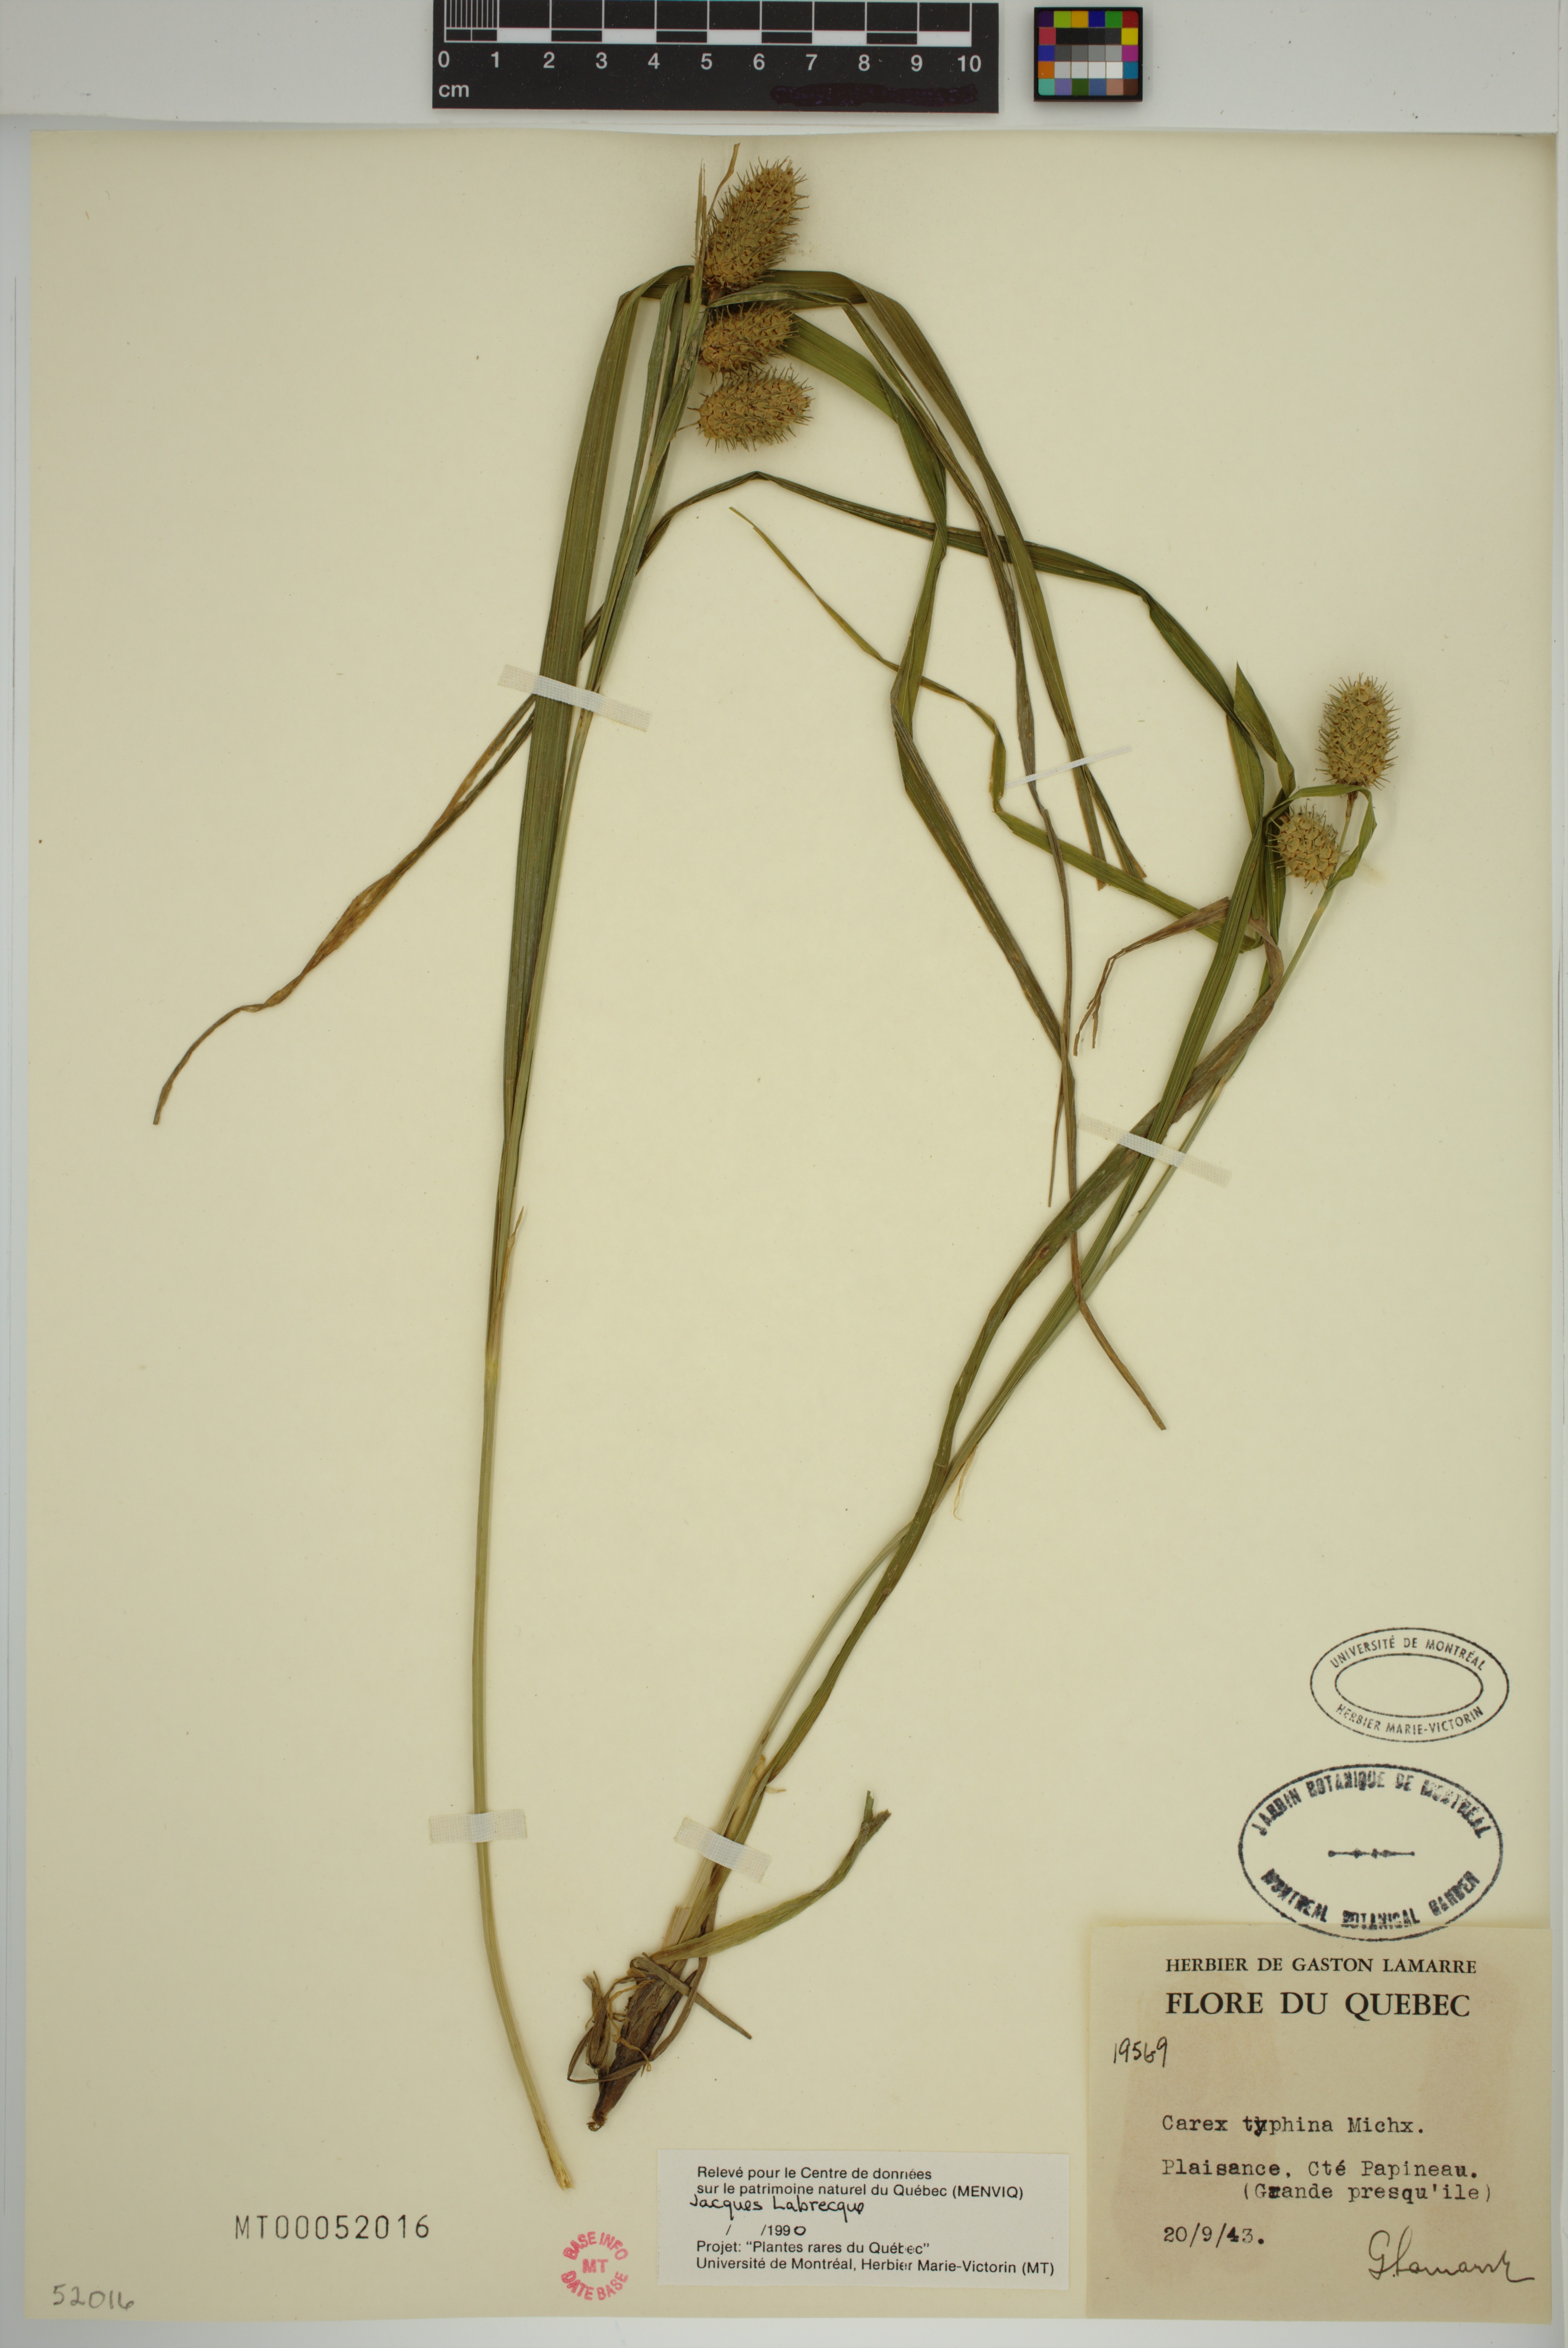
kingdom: Plantae
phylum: Tracheophyta
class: Liliopsida
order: Poales
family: Cyperaceae
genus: Carex
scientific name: Carex typhina
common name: Cattail sedge
